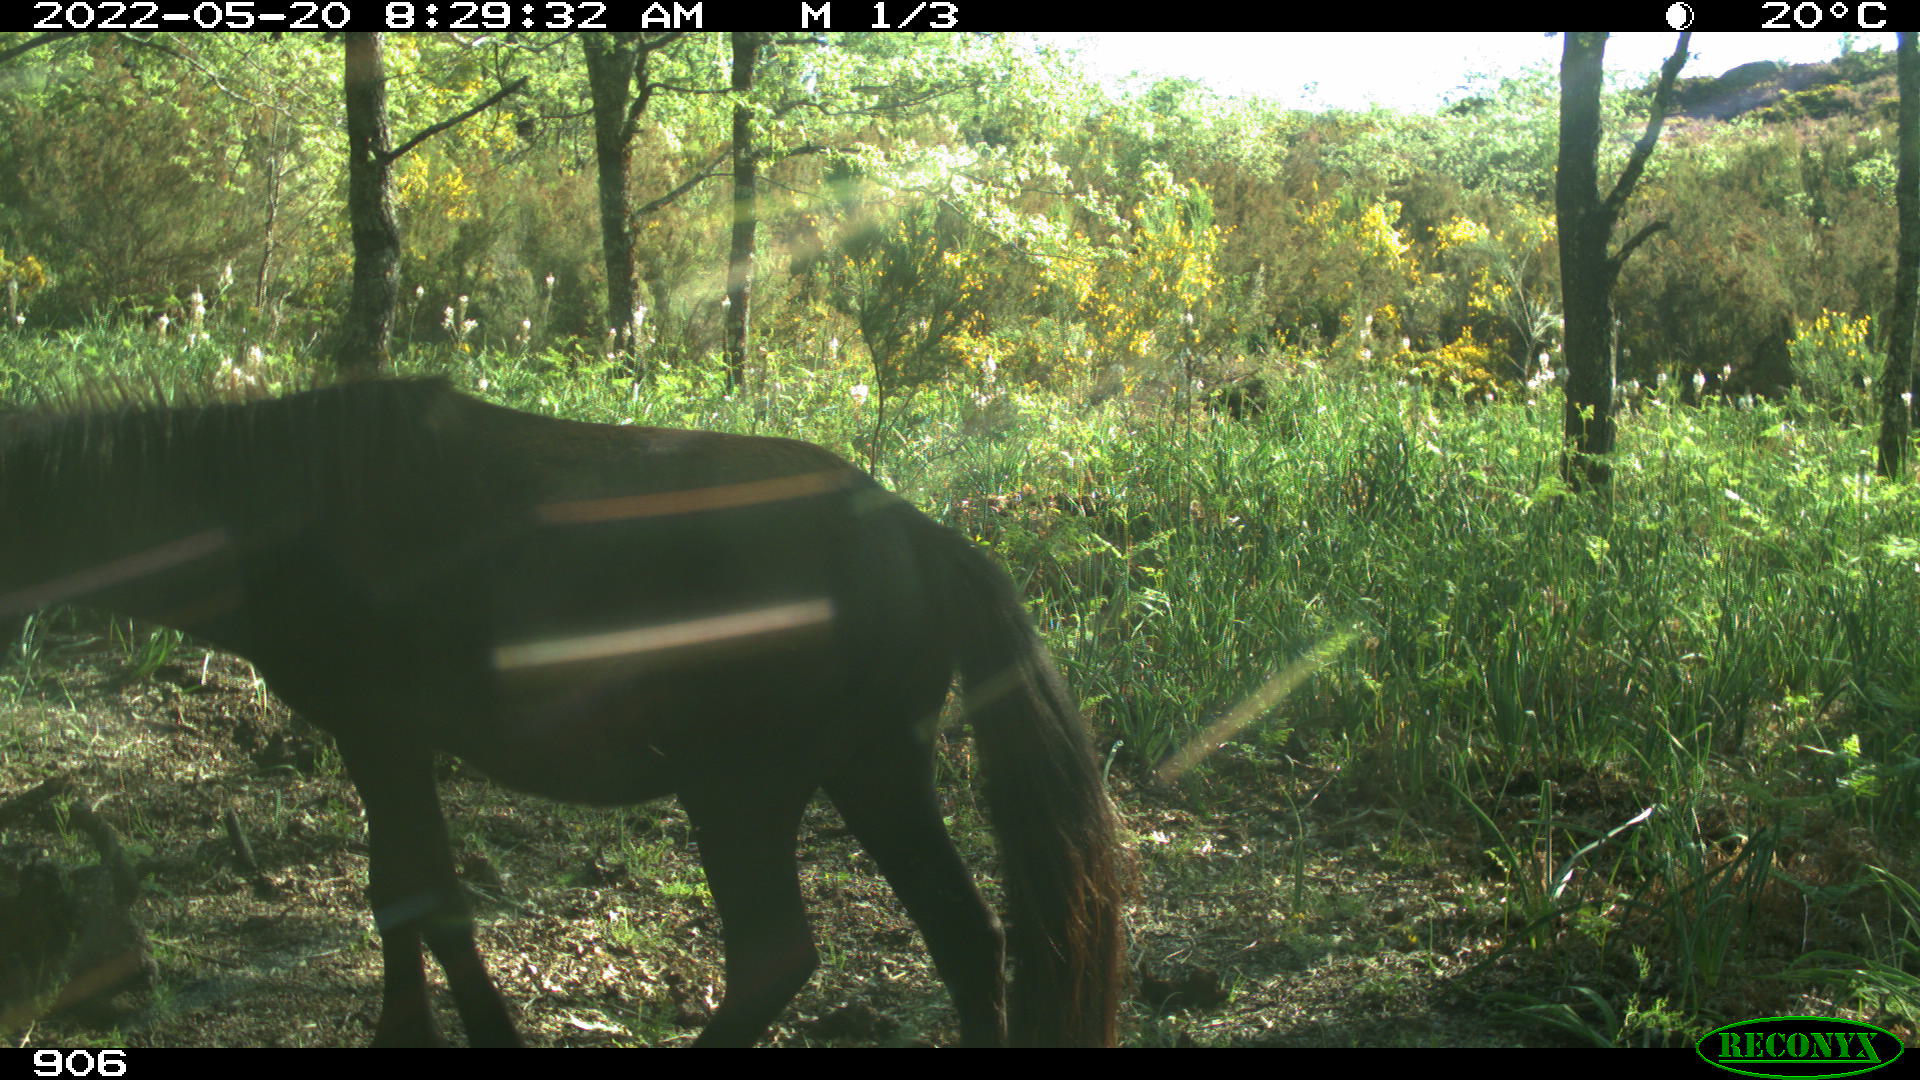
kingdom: Animalia
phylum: Chordata
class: Mammalia
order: Perissodactyla
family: Equidae
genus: Equus
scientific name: Equus caballus
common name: Horse
